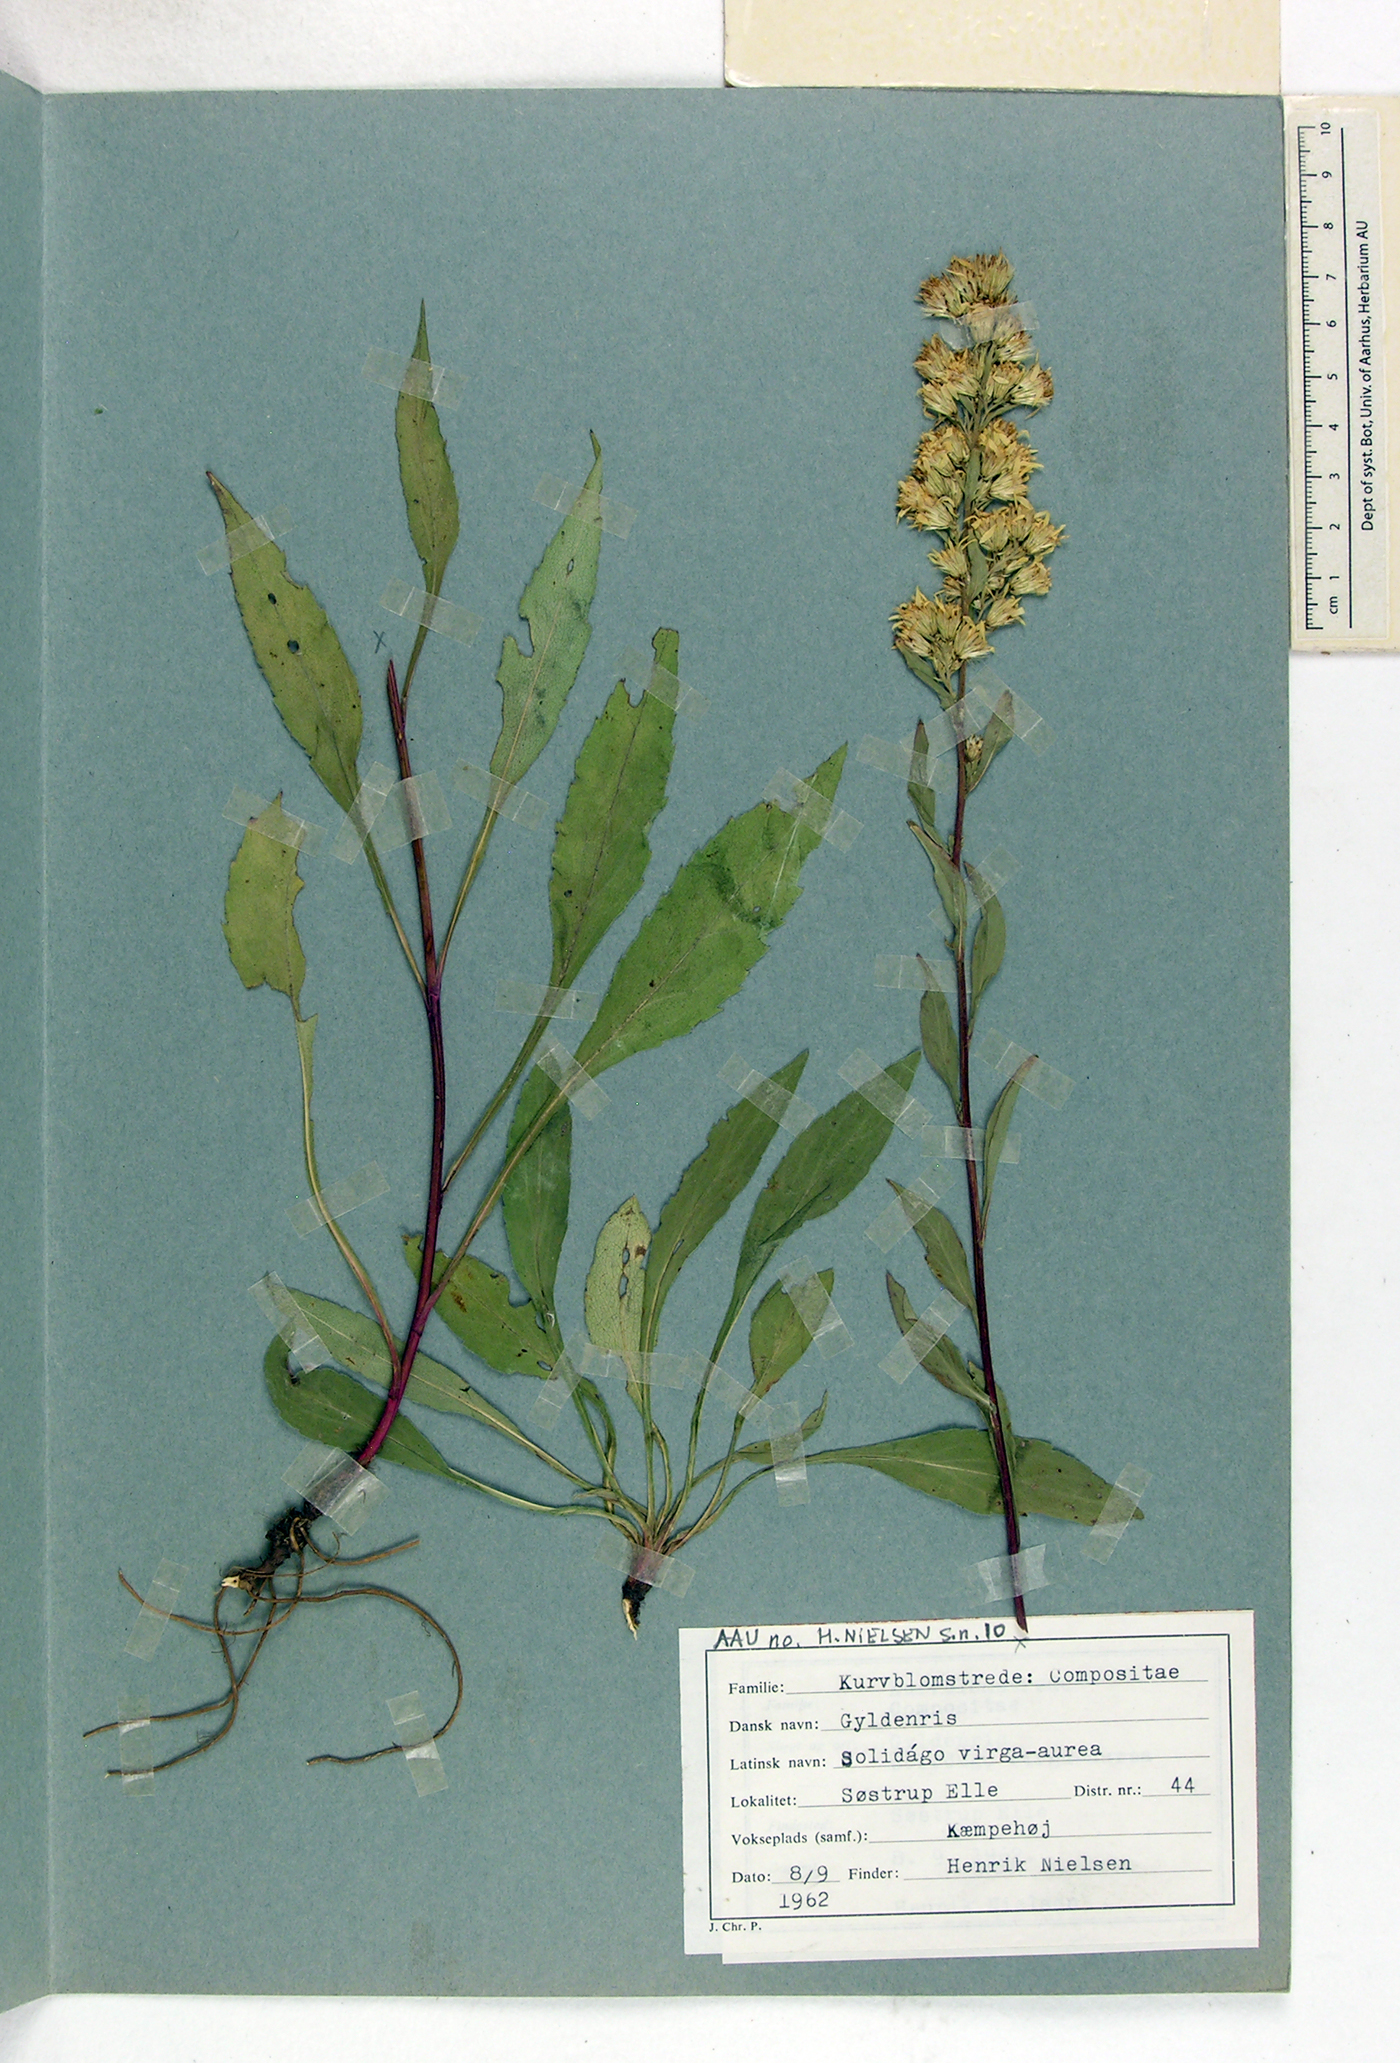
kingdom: Plantae
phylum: Tracheophyta
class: Magnoliopsida
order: Asterales
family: Asteraceae
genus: Solidago
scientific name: Solidago virgaurea
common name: Goldenrod
